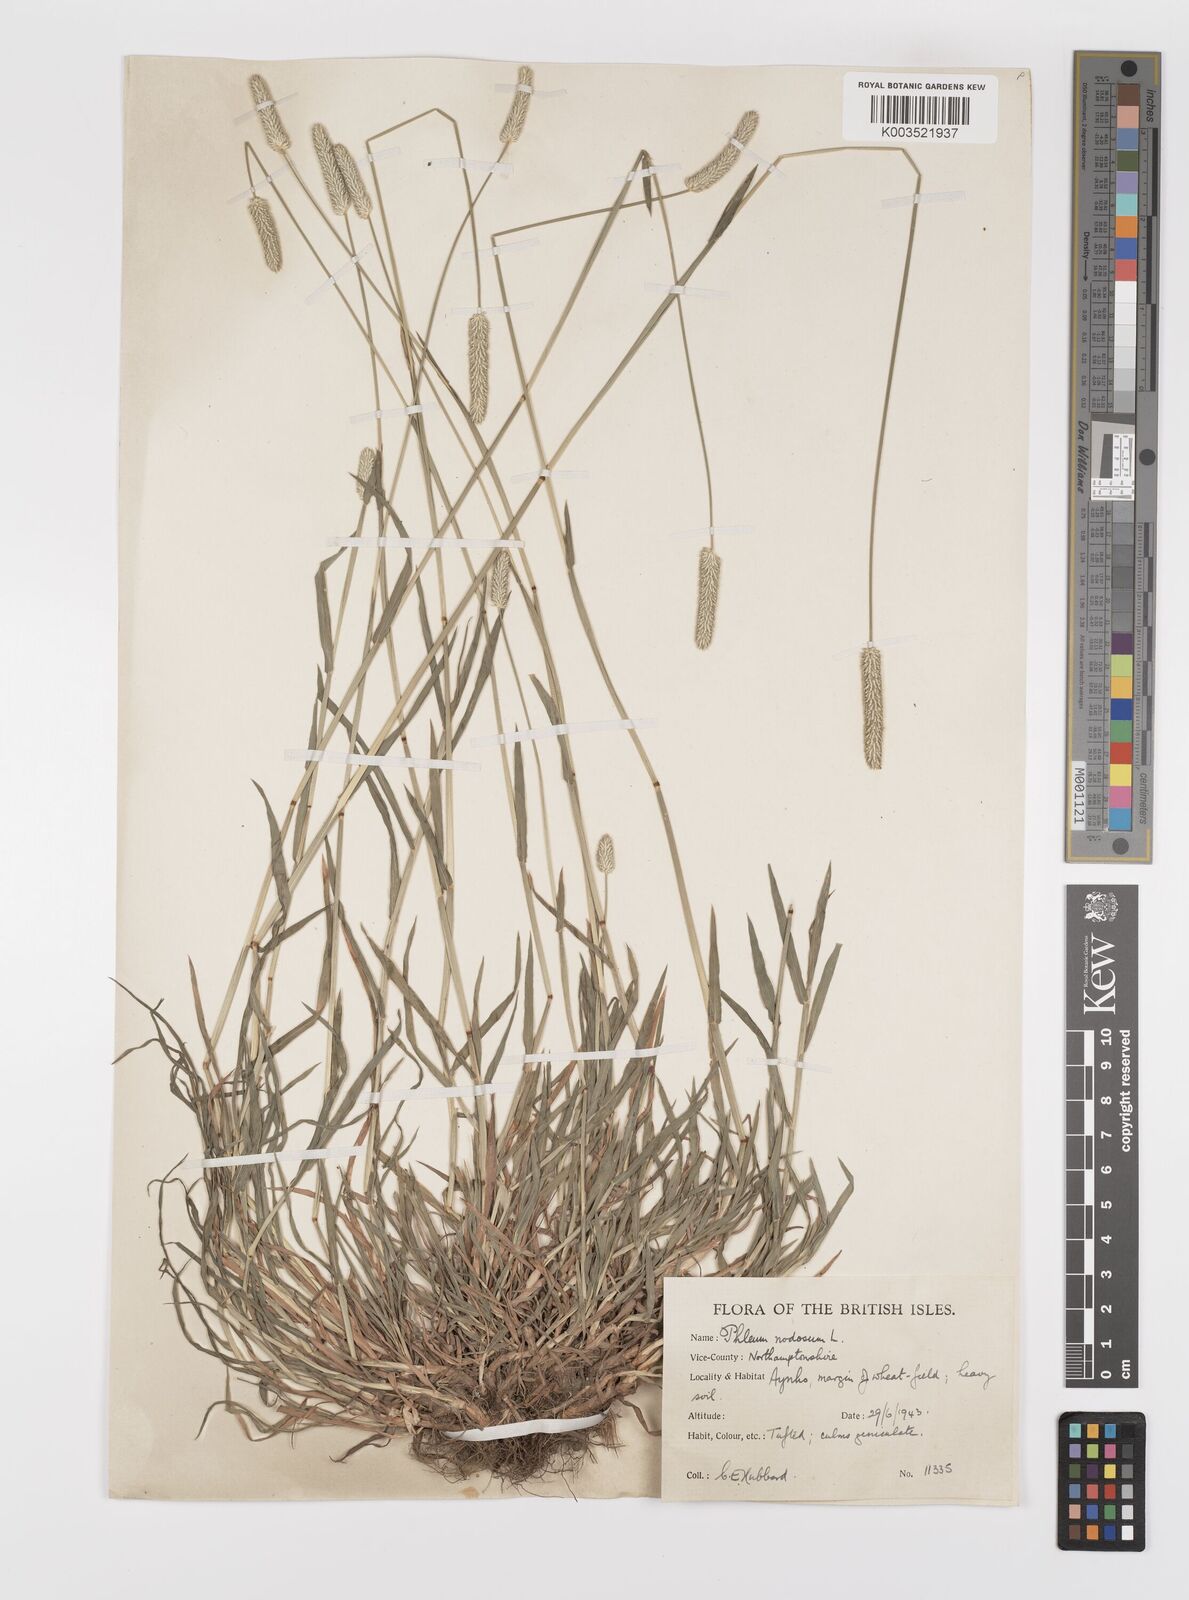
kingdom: Plantae
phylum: Tracheophyta
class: Liliopsida
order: Poales
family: Poaceae
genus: Phleum
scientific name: Phleum bertolonii
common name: Smaller cat's-tail
